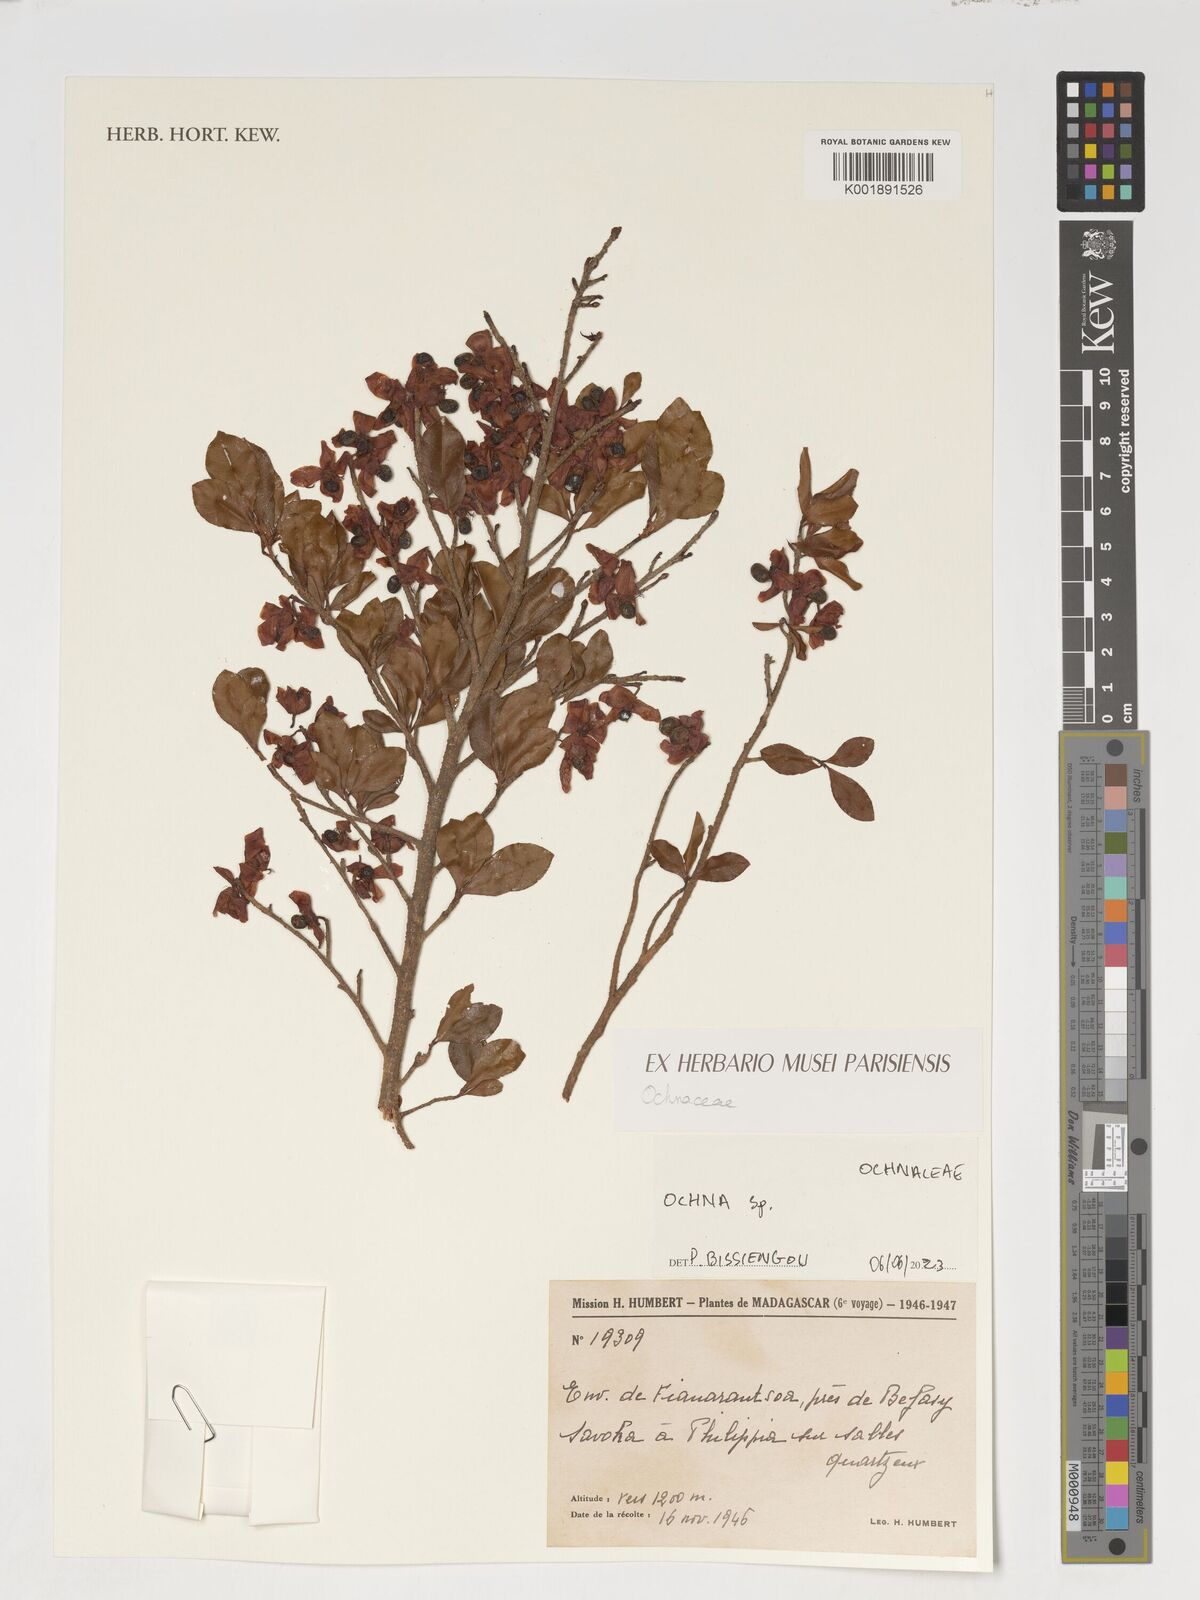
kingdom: Plantae
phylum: Tracheophyta
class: Magnoliopsida
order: Malpighiales
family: Ochnaceae
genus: Ochna
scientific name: Ochna
